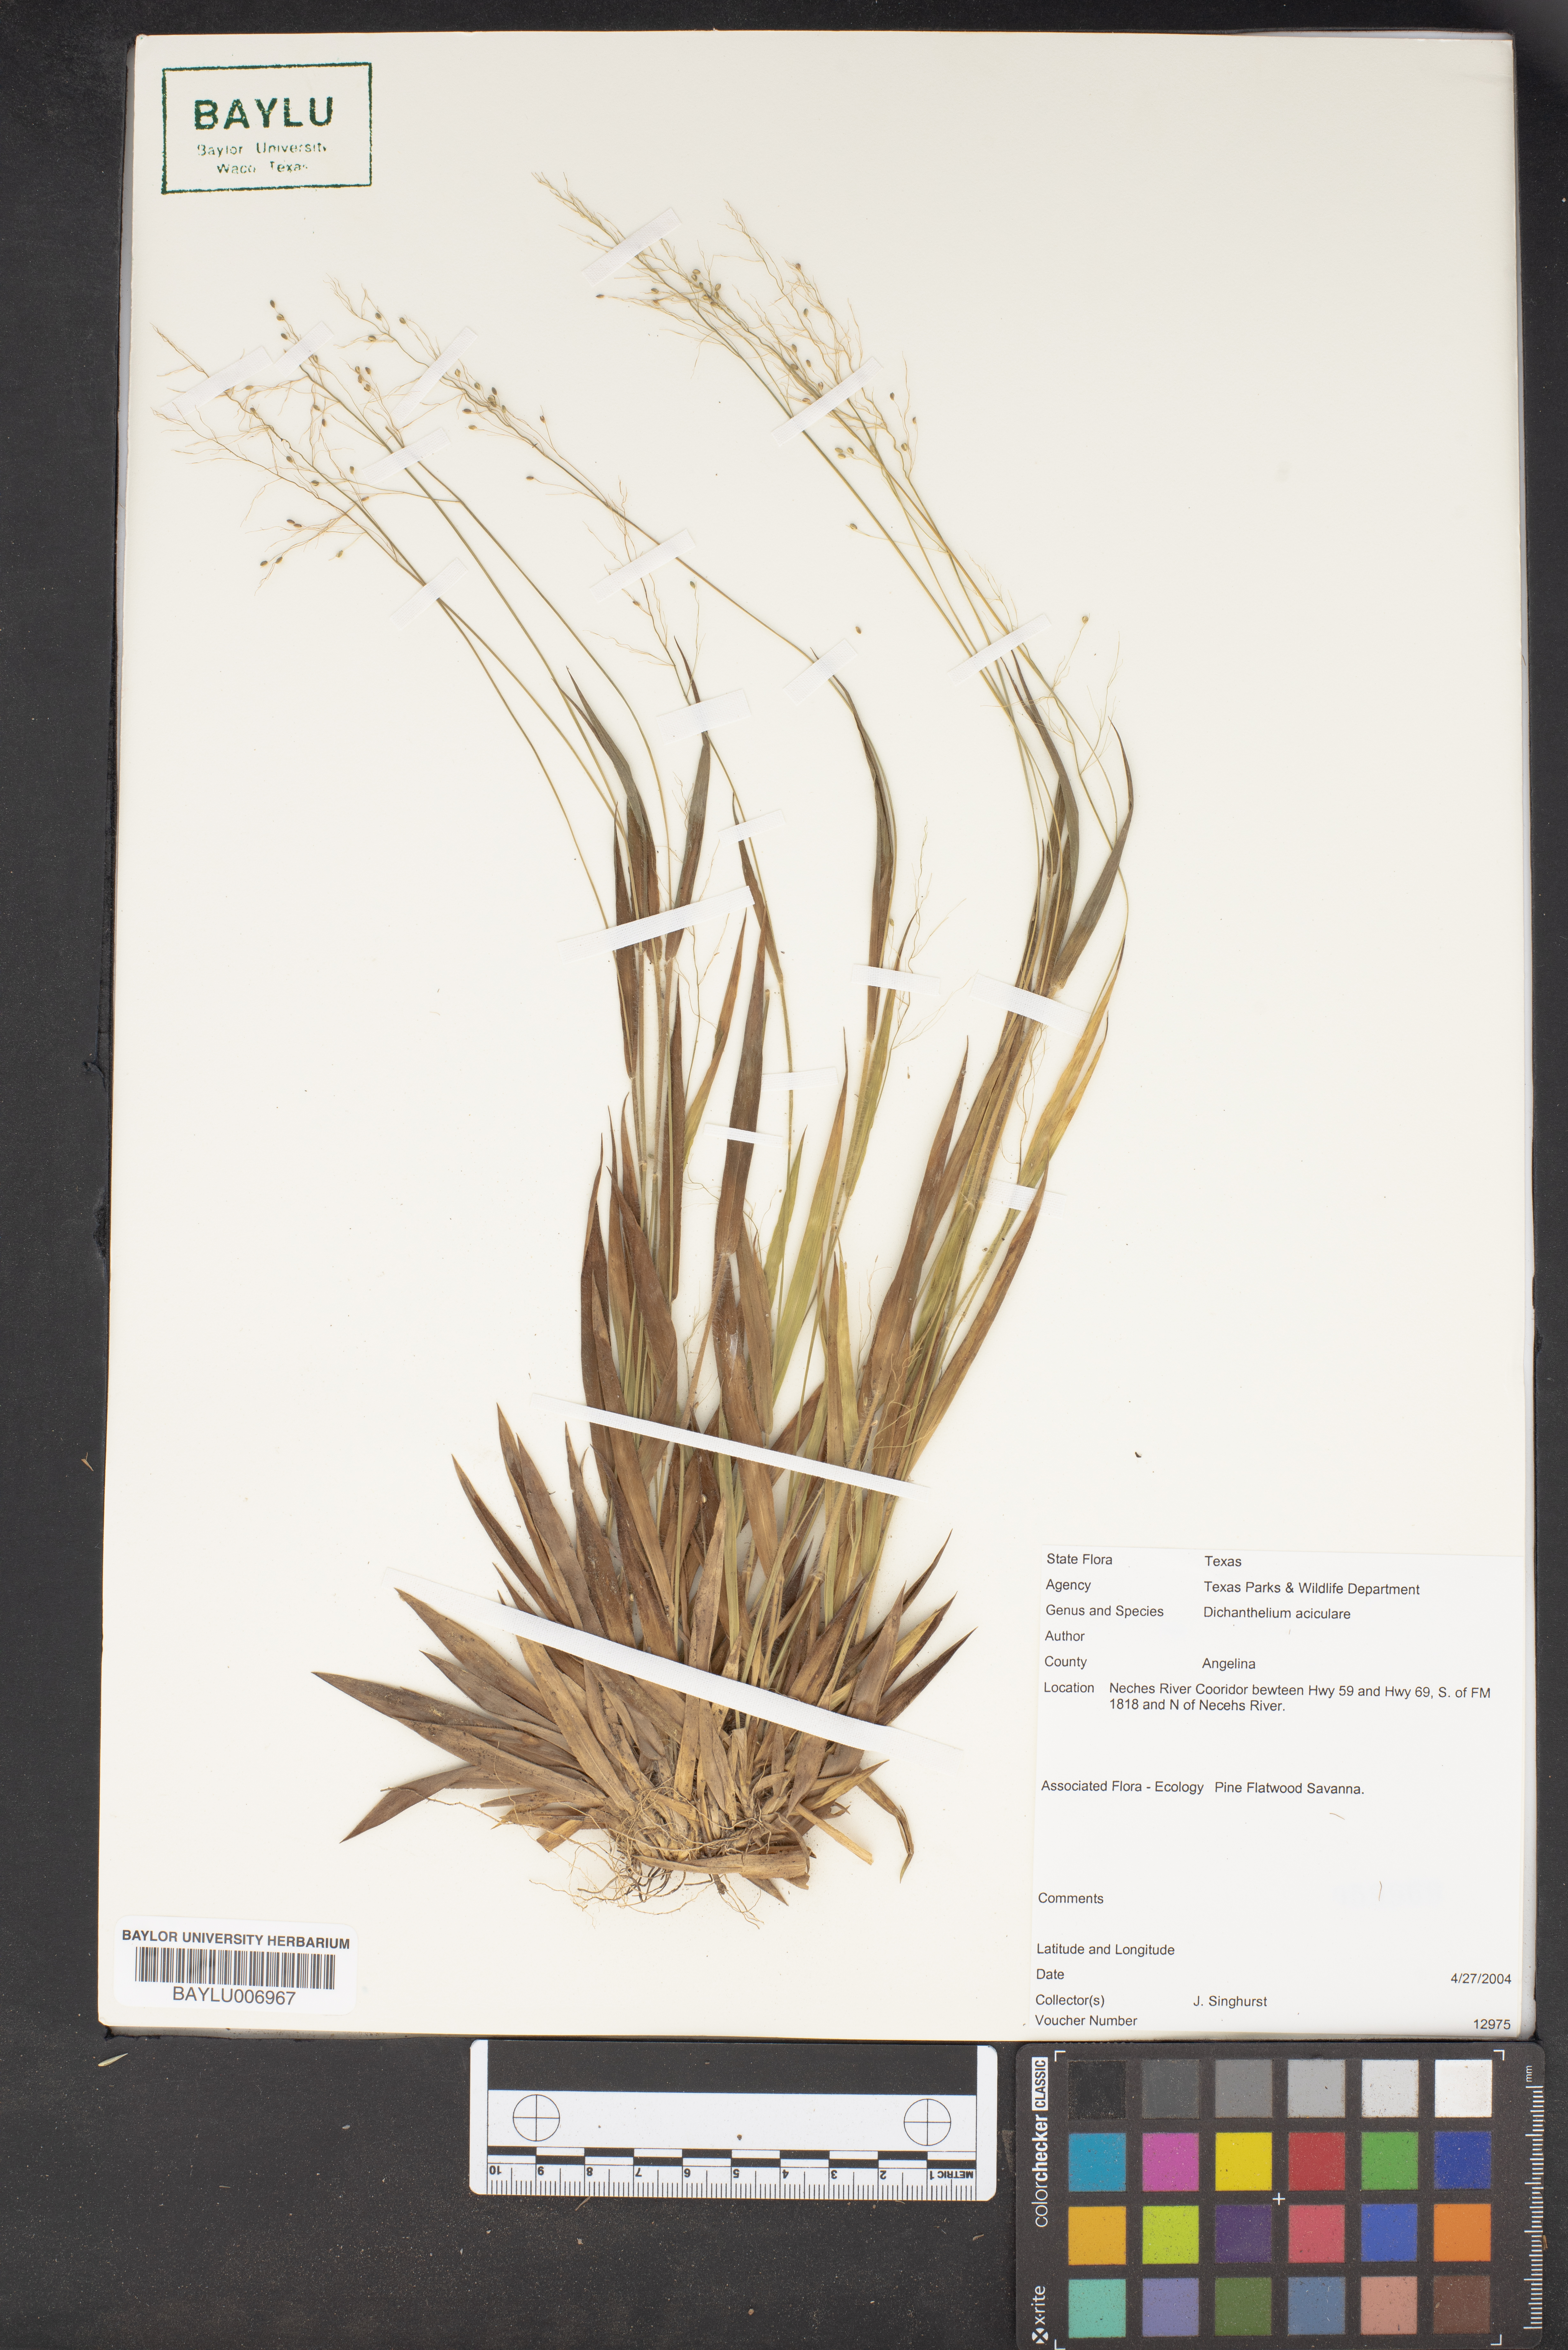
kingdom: Plantae
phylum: Tracheophyta
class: Liliopsida
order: Poales
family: Poaceae
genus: Dichanthelium
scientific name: Dichanthelium aciculare
